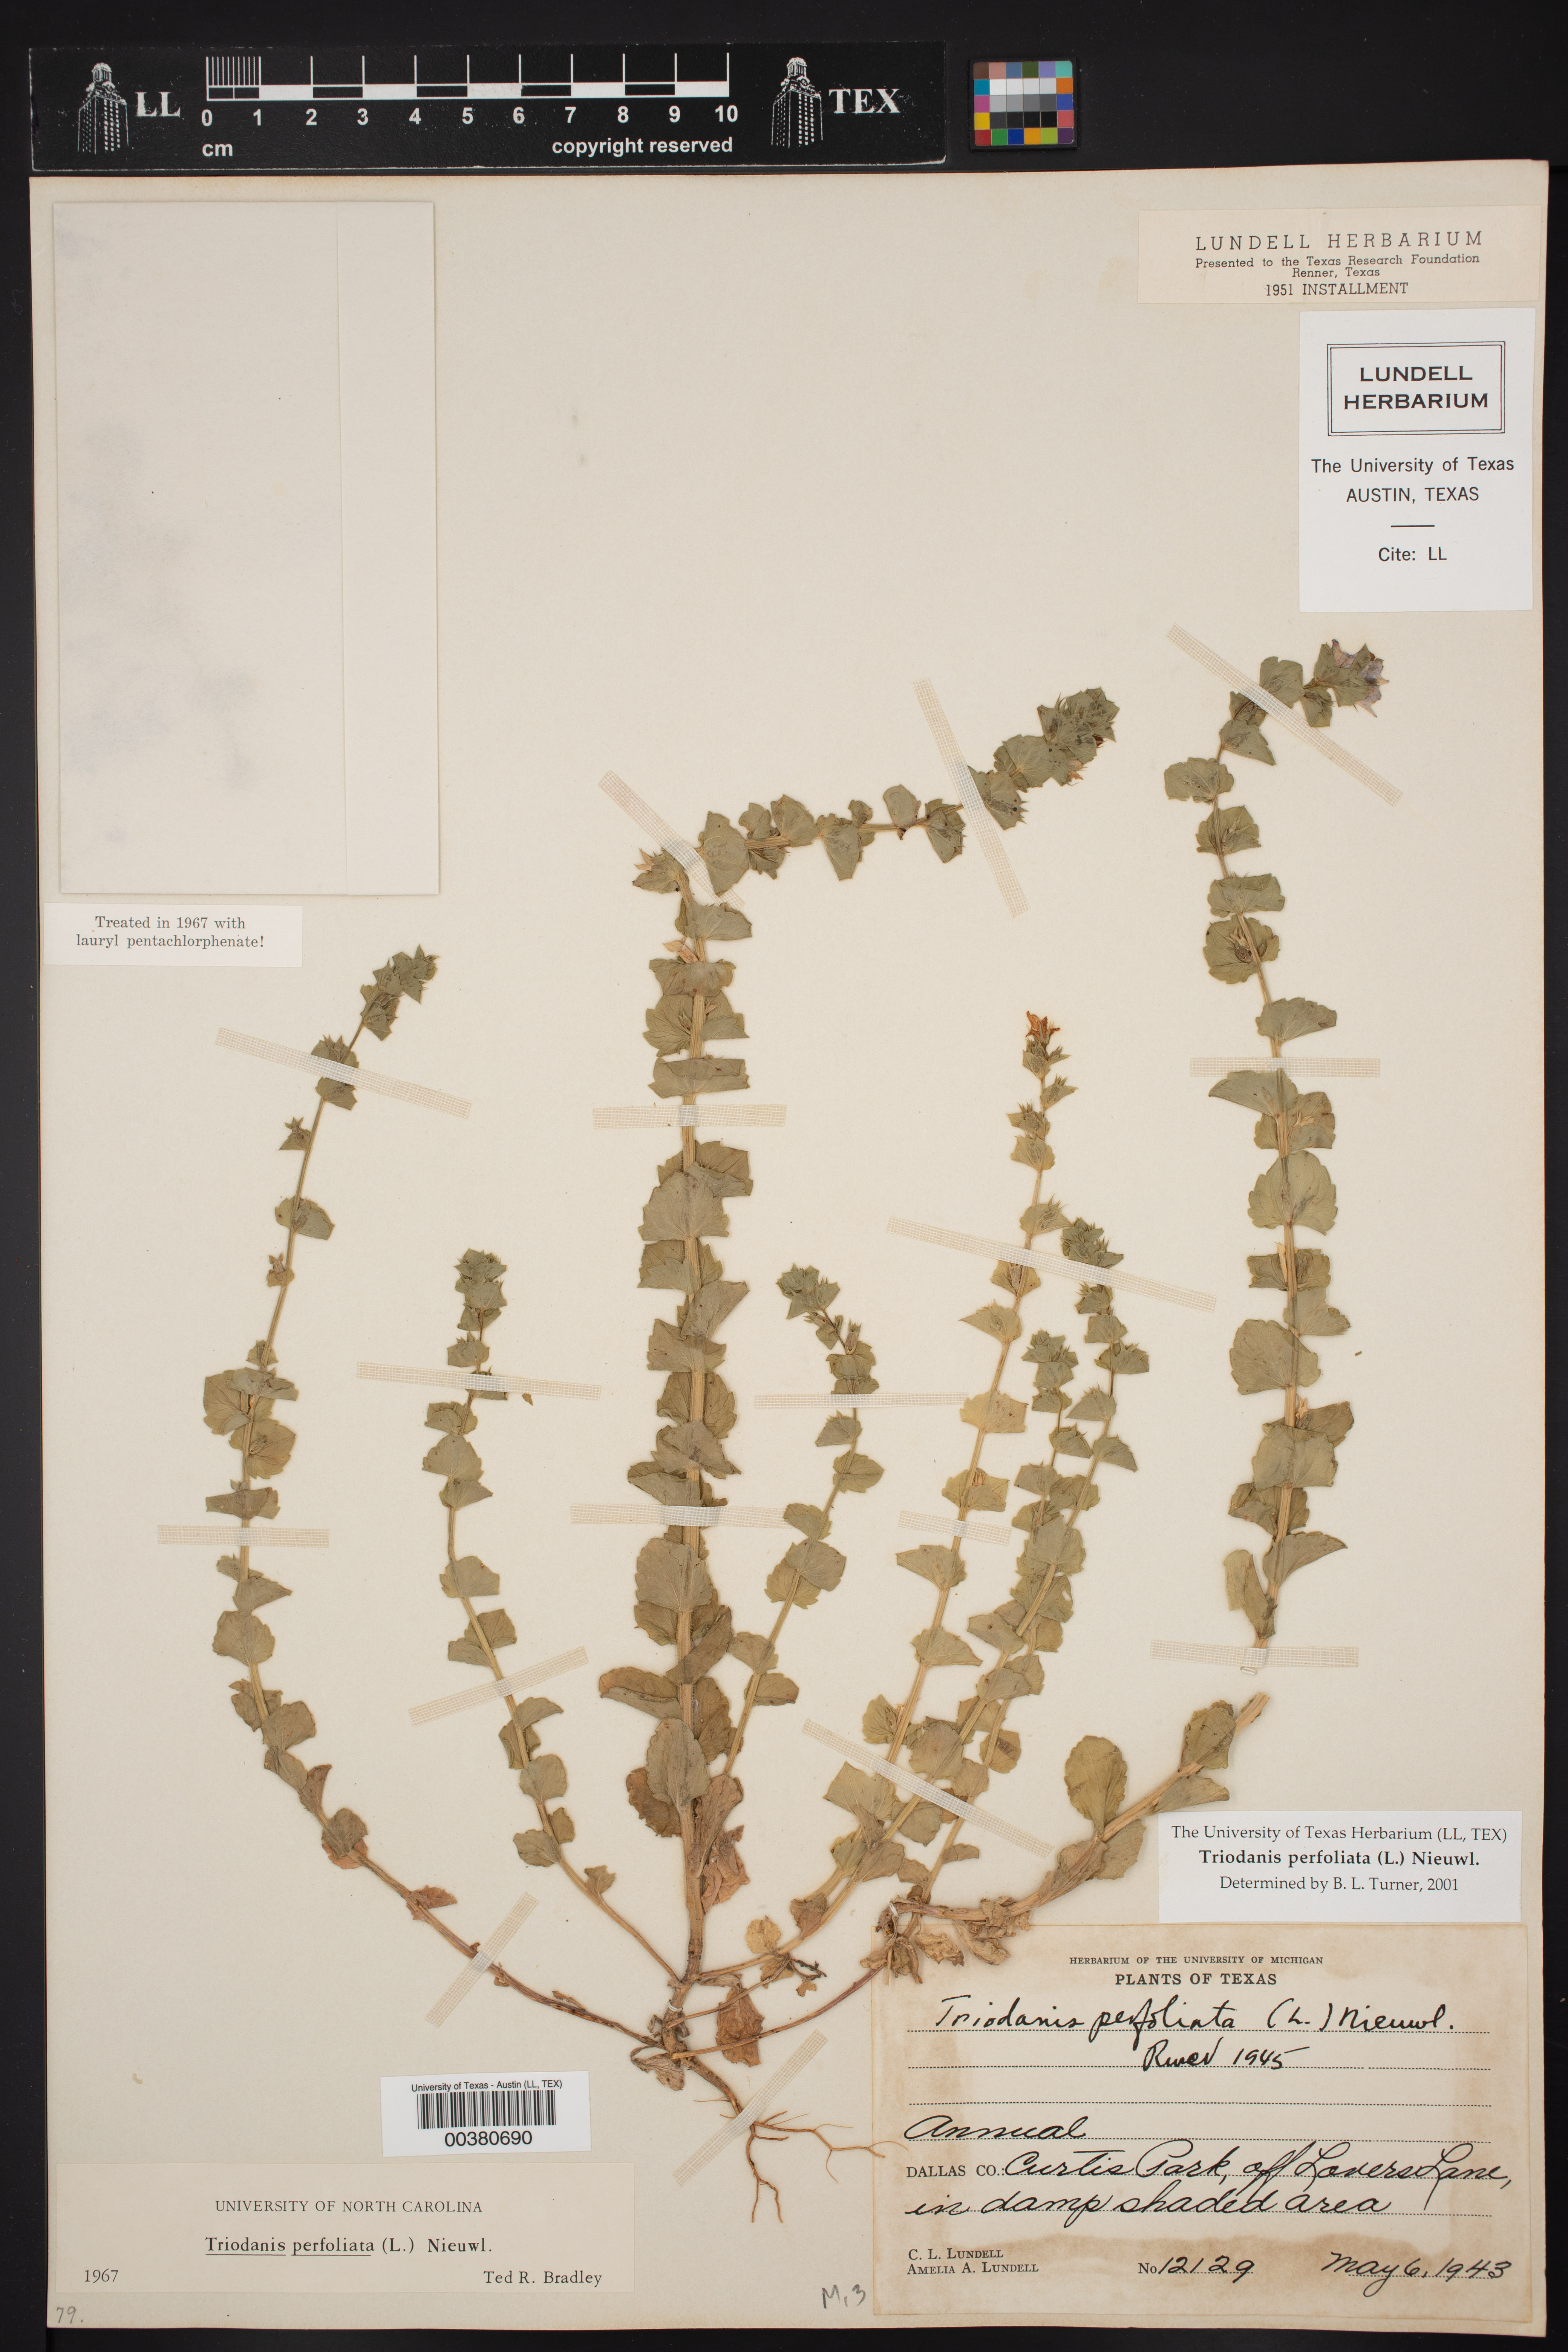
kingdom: Plantae
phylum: Tracheophyta
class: Magnoliopsida
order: Asterales
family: Campanulaceae
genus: Triodanis
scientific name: Triodanis perfoliata
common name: Clasping venus' looking-glass
